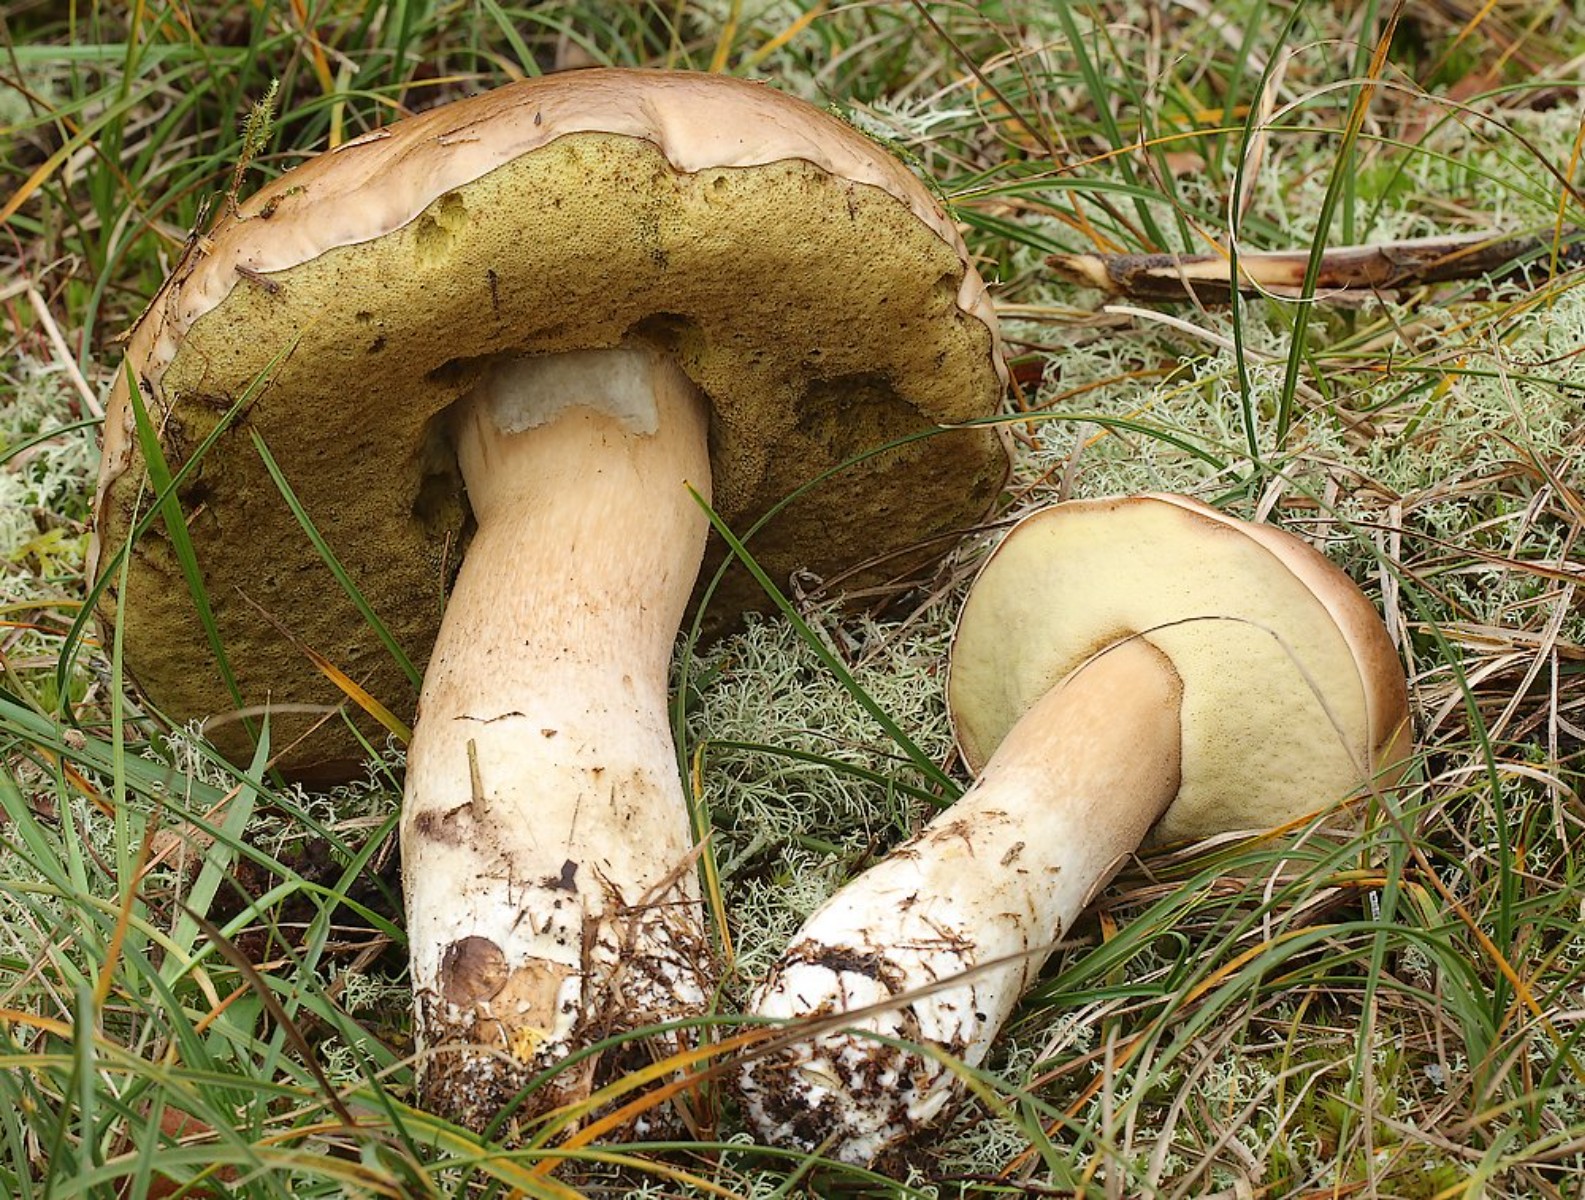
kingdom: Fungi
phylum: Basidiomycota
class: Agaricomycetes
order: Boletales
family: Boletaceae
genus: Boletus
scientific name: Boletus edulis
